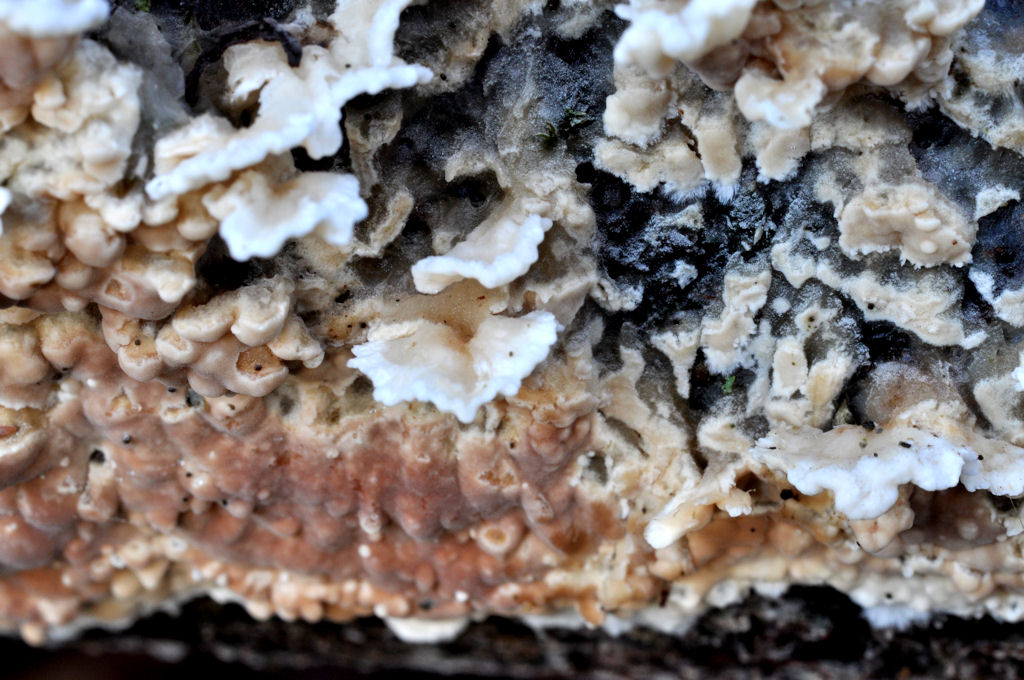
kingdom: Fungi
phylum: Basidiomycota
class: Agaricomycetes
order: Agaricales
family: Cyphellaceae
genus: Chondrostereum
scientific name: Chondrostereum purpureum
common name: purpurlædersvamp
